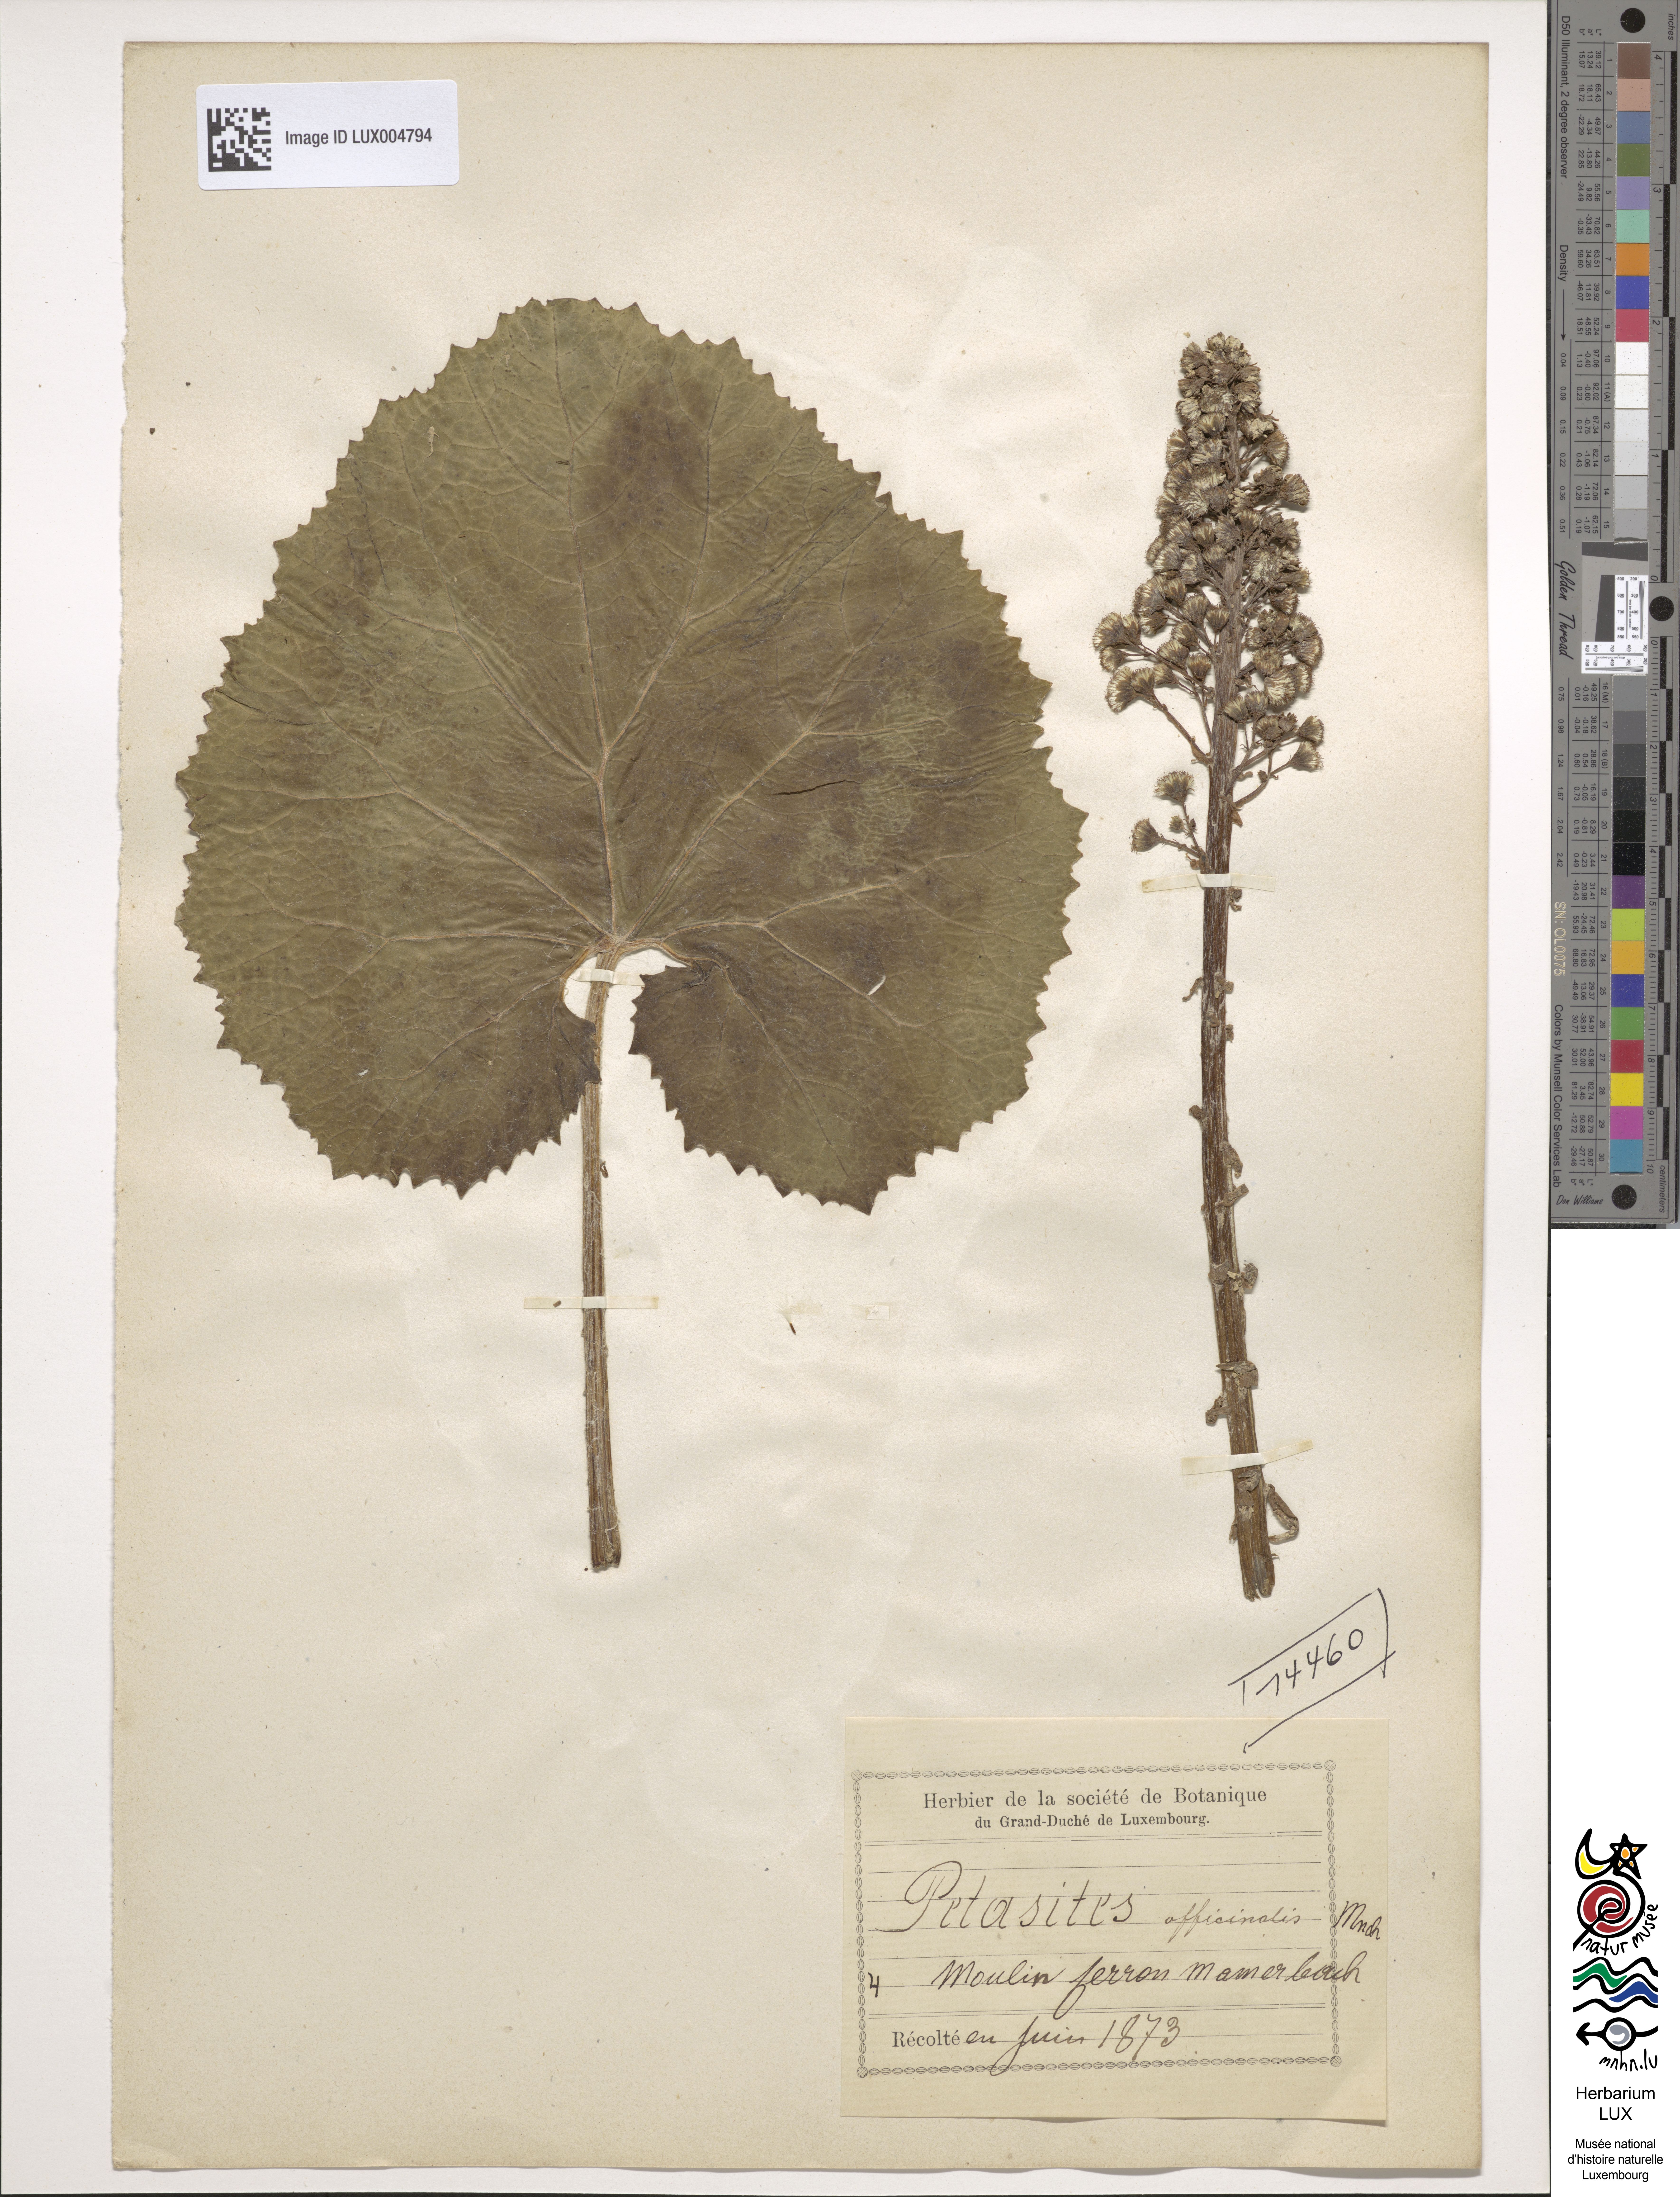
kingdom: Plantae
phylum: Tracheophyta
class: Magnoliopsida
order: Asterales
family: Asteraceae
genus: Petasites
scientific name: Petasites hybridus
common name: Butterbur
